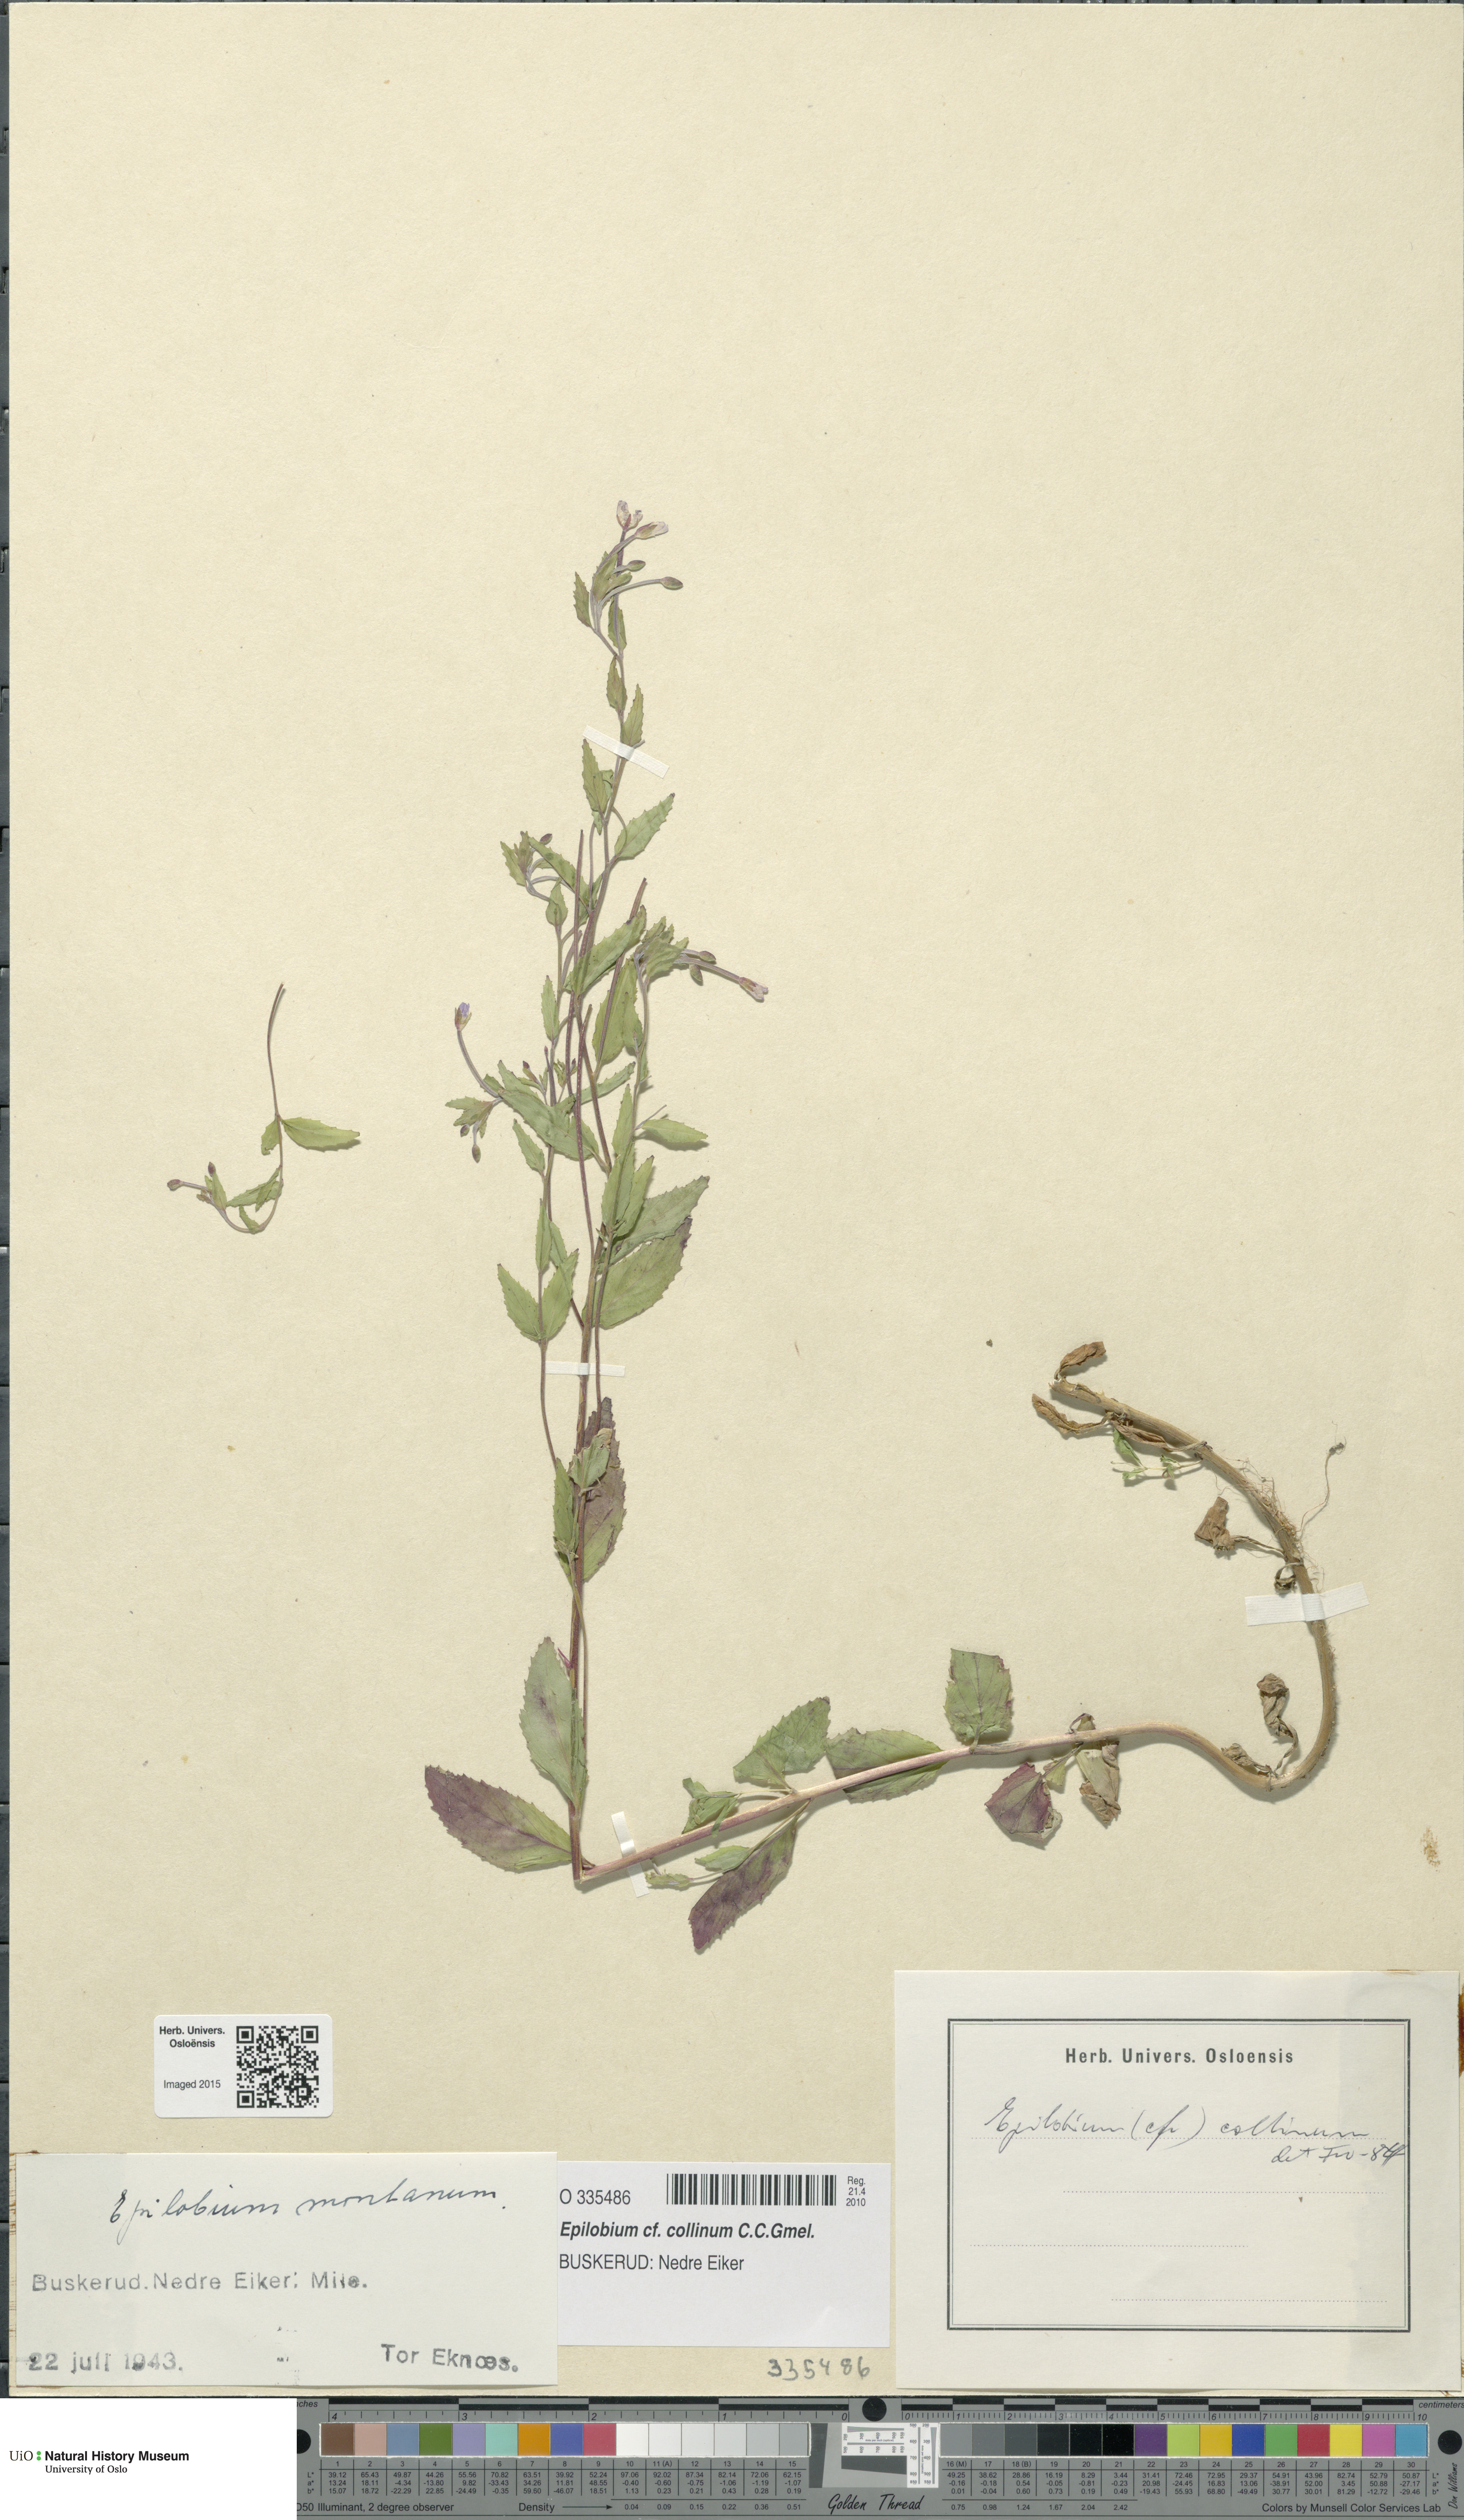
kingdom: Plantae
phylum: Tracheophyta
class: Magnoliopsida
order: Myrtales
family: Onagraceae
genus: Epilobium
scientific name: Epilobium collinum
